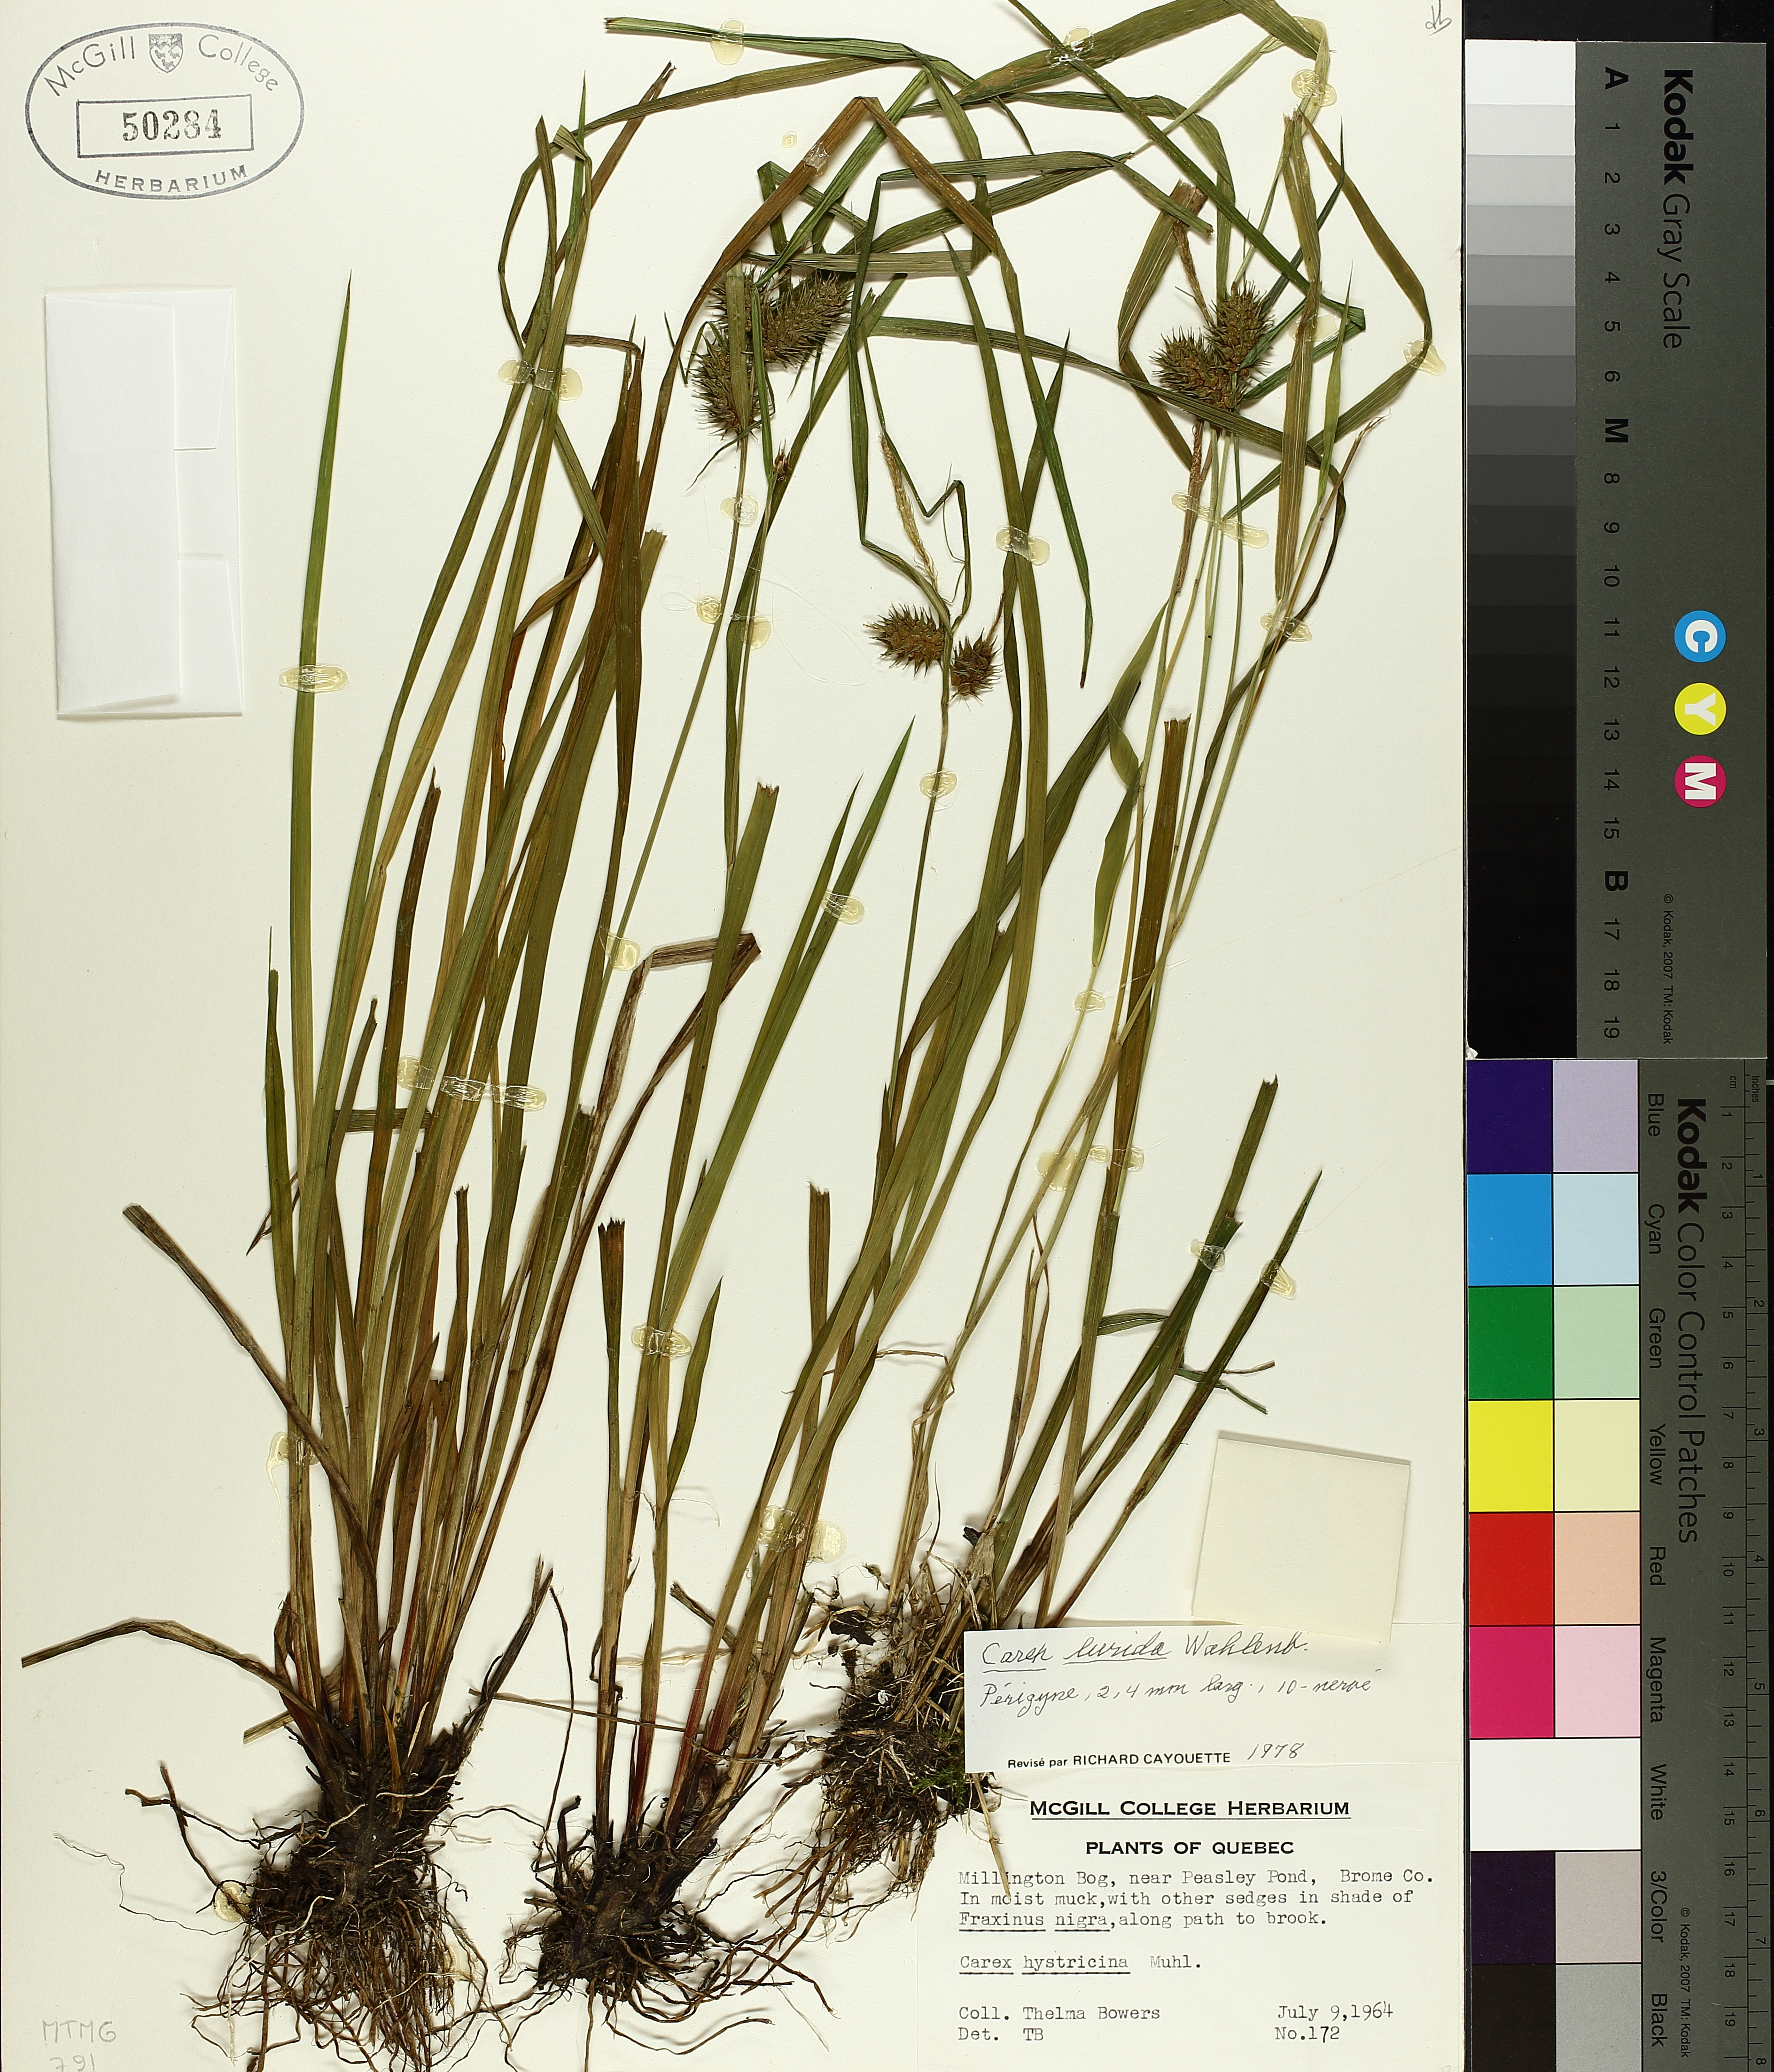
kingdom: Plantae
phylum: Tracheophyta
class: Liliopsida
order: Poales
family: Cyperaceae
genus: Carex
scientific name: Carex lurida
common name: Sallow sedge
